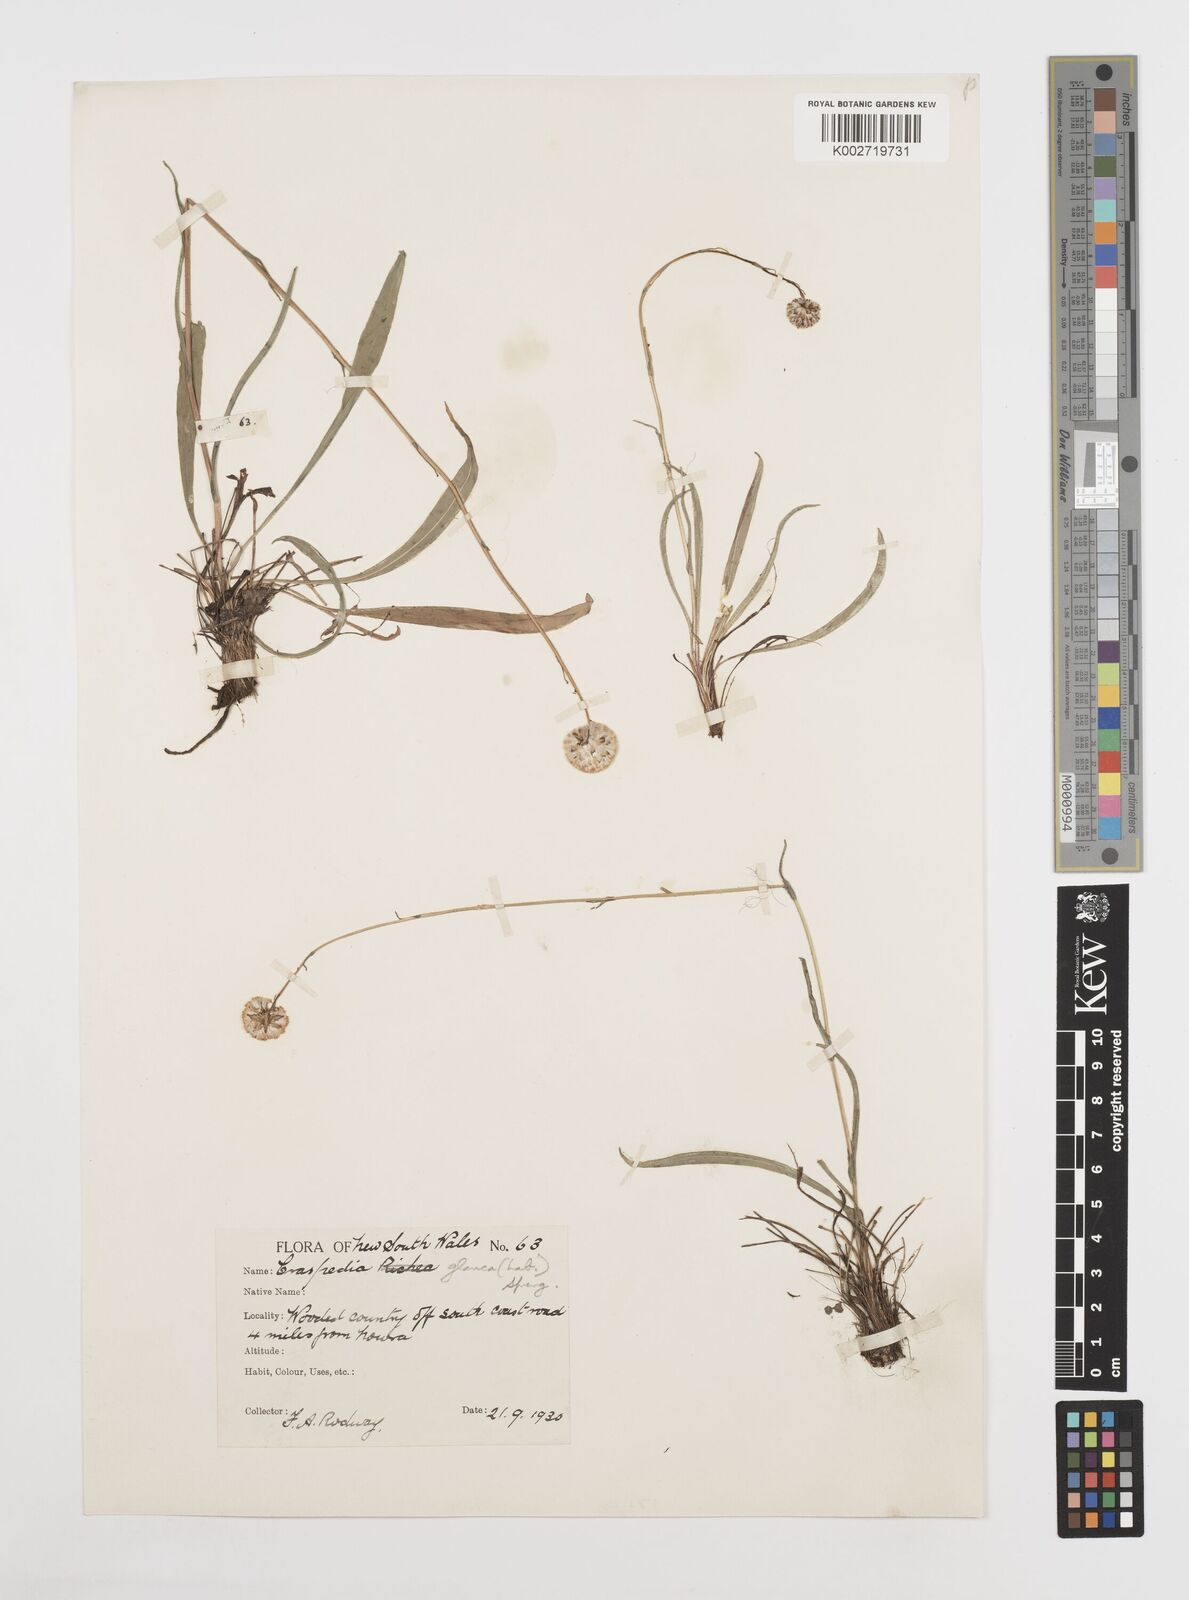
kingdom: Plantae
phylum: Tracheophyta
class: Magnoliopsida
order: Asterales
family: Asteraceae
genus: Craspedia
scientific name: Craspedia glauca
